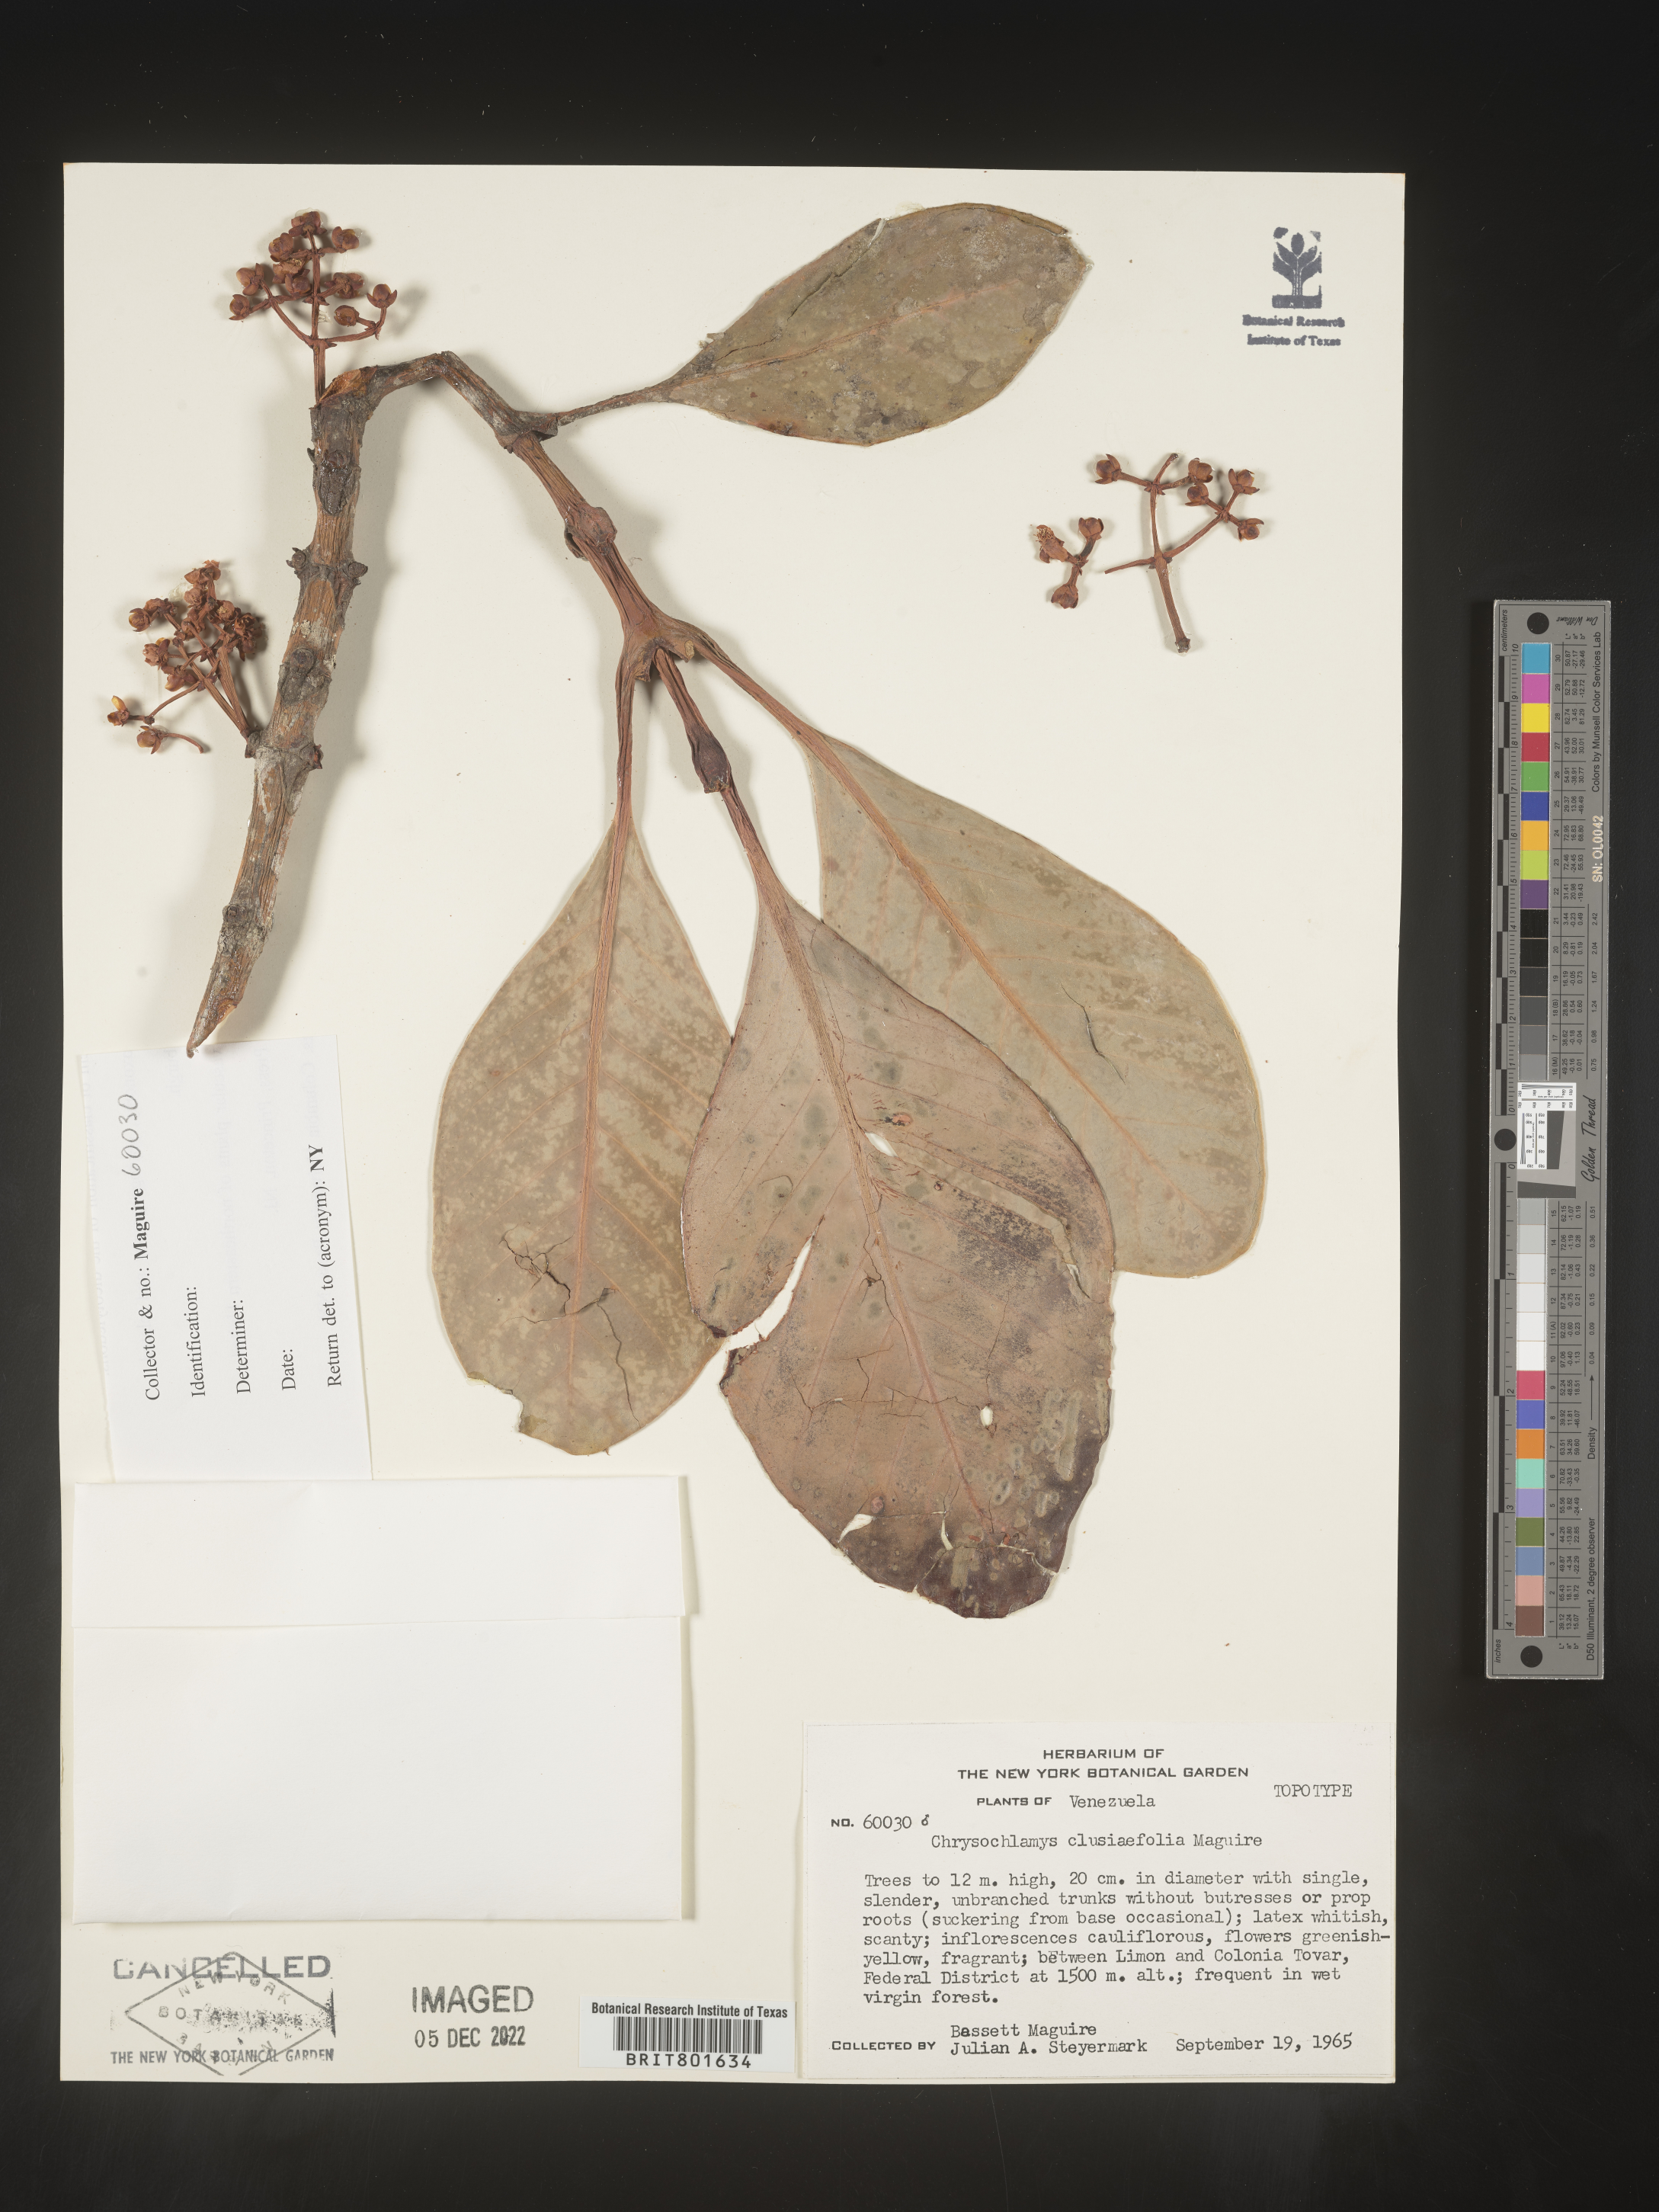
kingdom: Plantae
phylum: Tracheophyta
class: Magnoliopsida
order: Malpighiales
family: Clusiaceae
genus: Chrysochlamys
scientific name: Chrysochlamys
